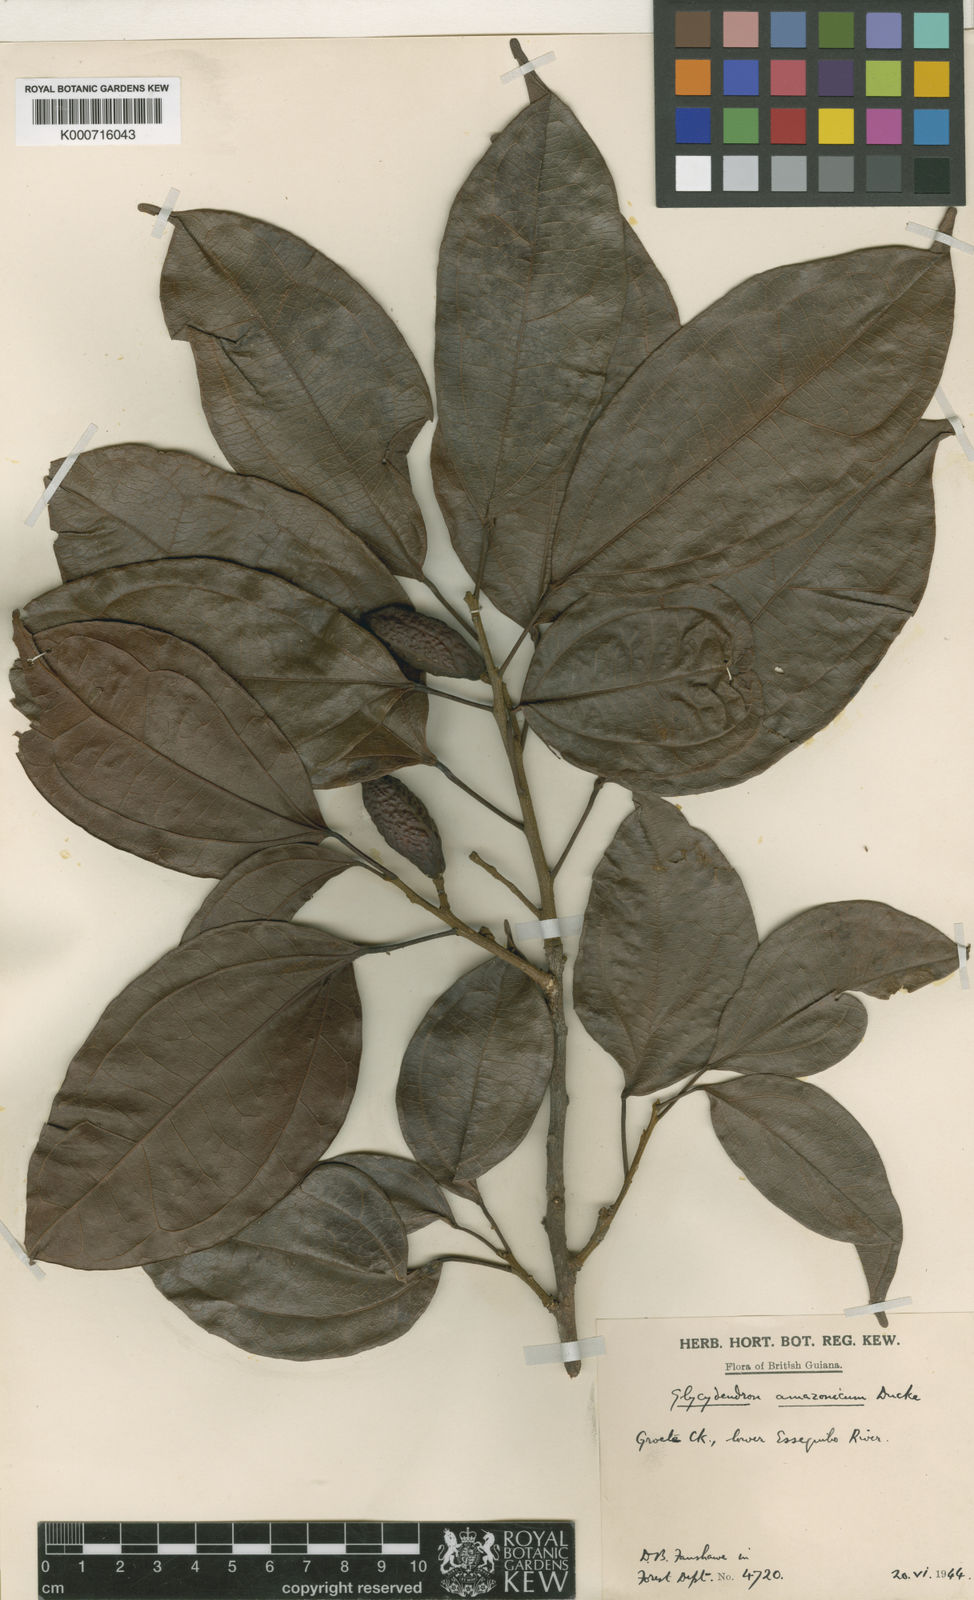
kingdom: Plantae
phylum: Tracheophyta
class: Magnoliopsida
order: Malpighiales
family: Euphorbiaceae
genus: Glycydendron
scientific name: Glycydendron amazonicum
